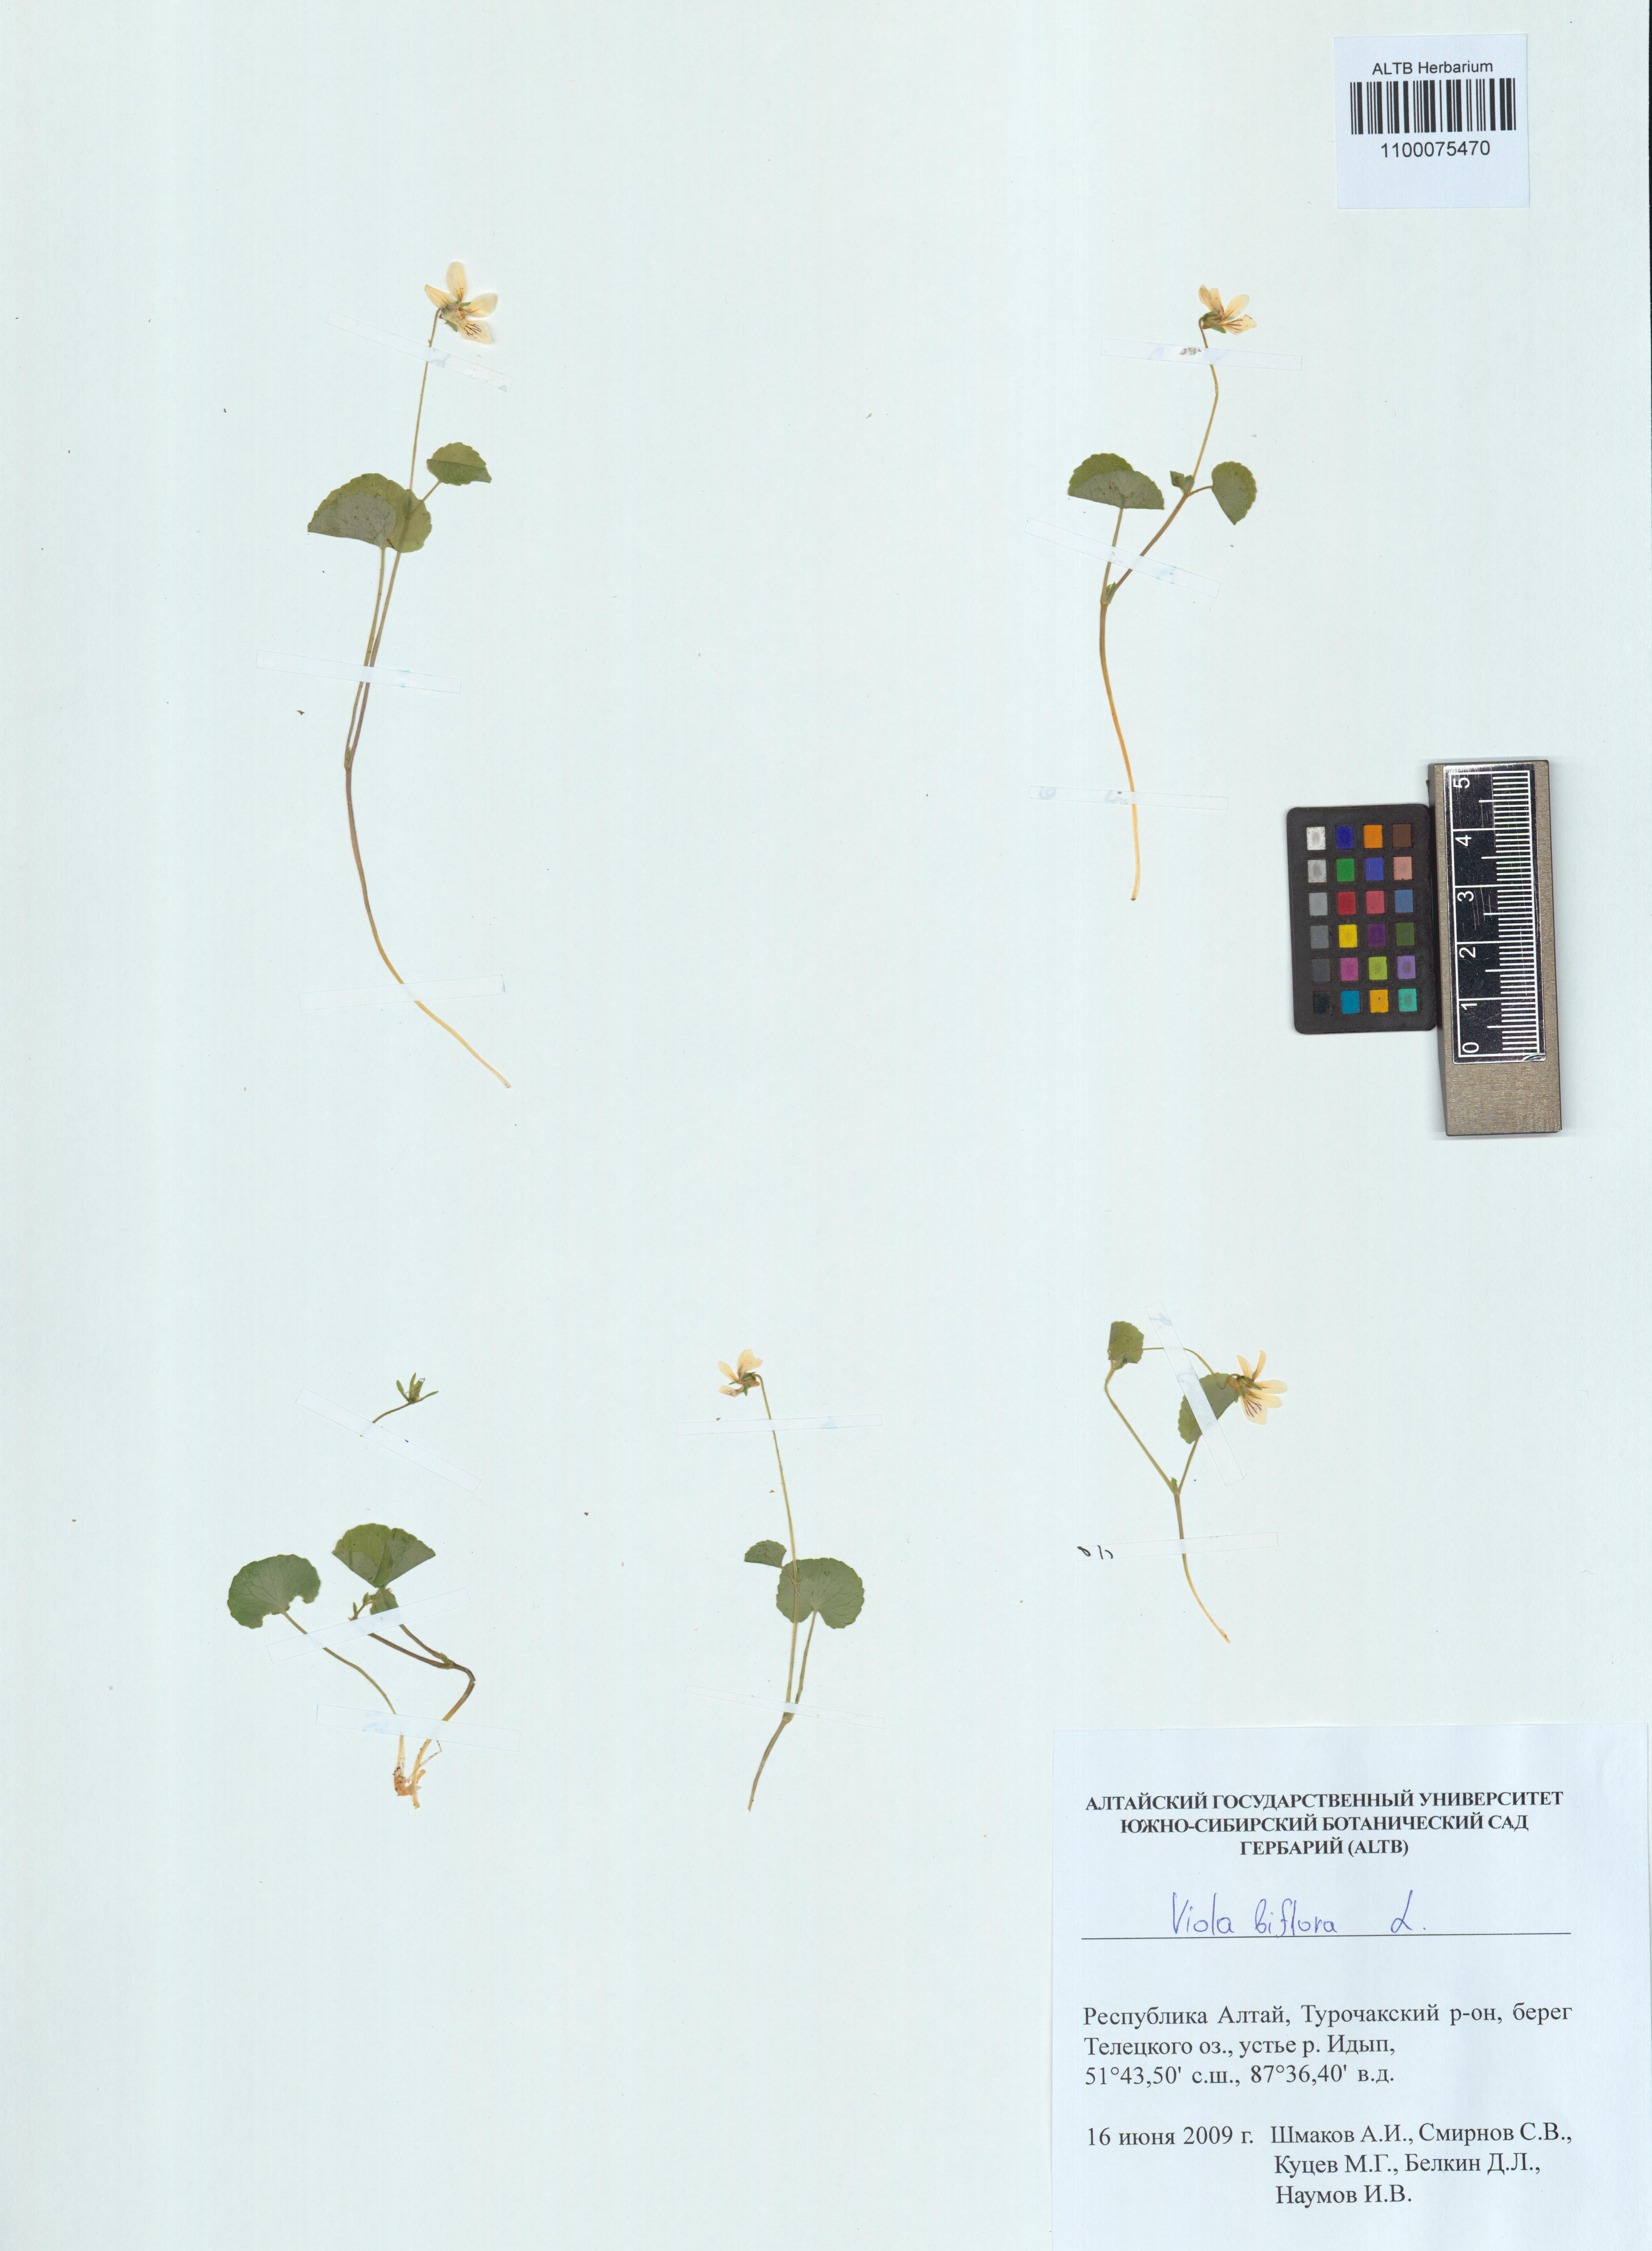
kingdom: Plantae
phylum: Tracheophyta
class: Magnoliopsida
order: Malpighiales
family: Violaceae
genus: Viola
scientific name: Viola biflora
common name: Alpine yellow violet
